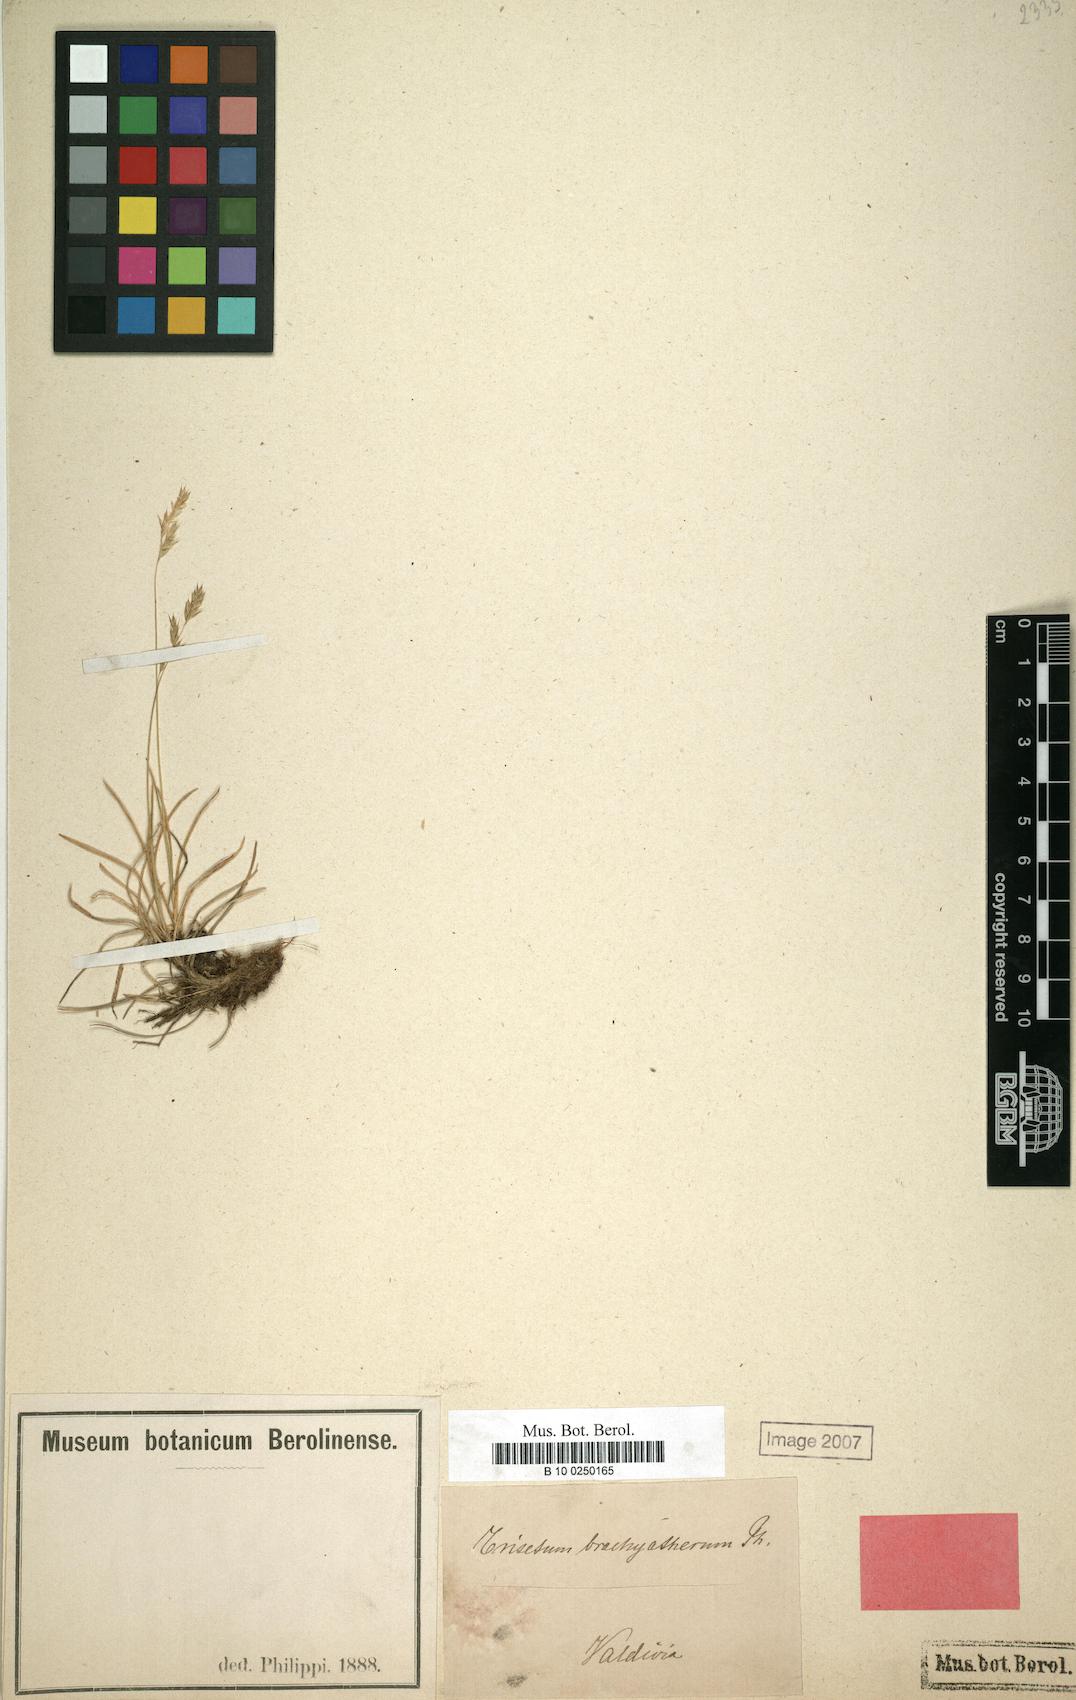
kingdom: Plantae
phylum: Tracheophyta
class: Liliopsida
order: Poales
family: Poaceae
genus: Cinnagrostis
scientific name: Cinnagrostis micrathera
